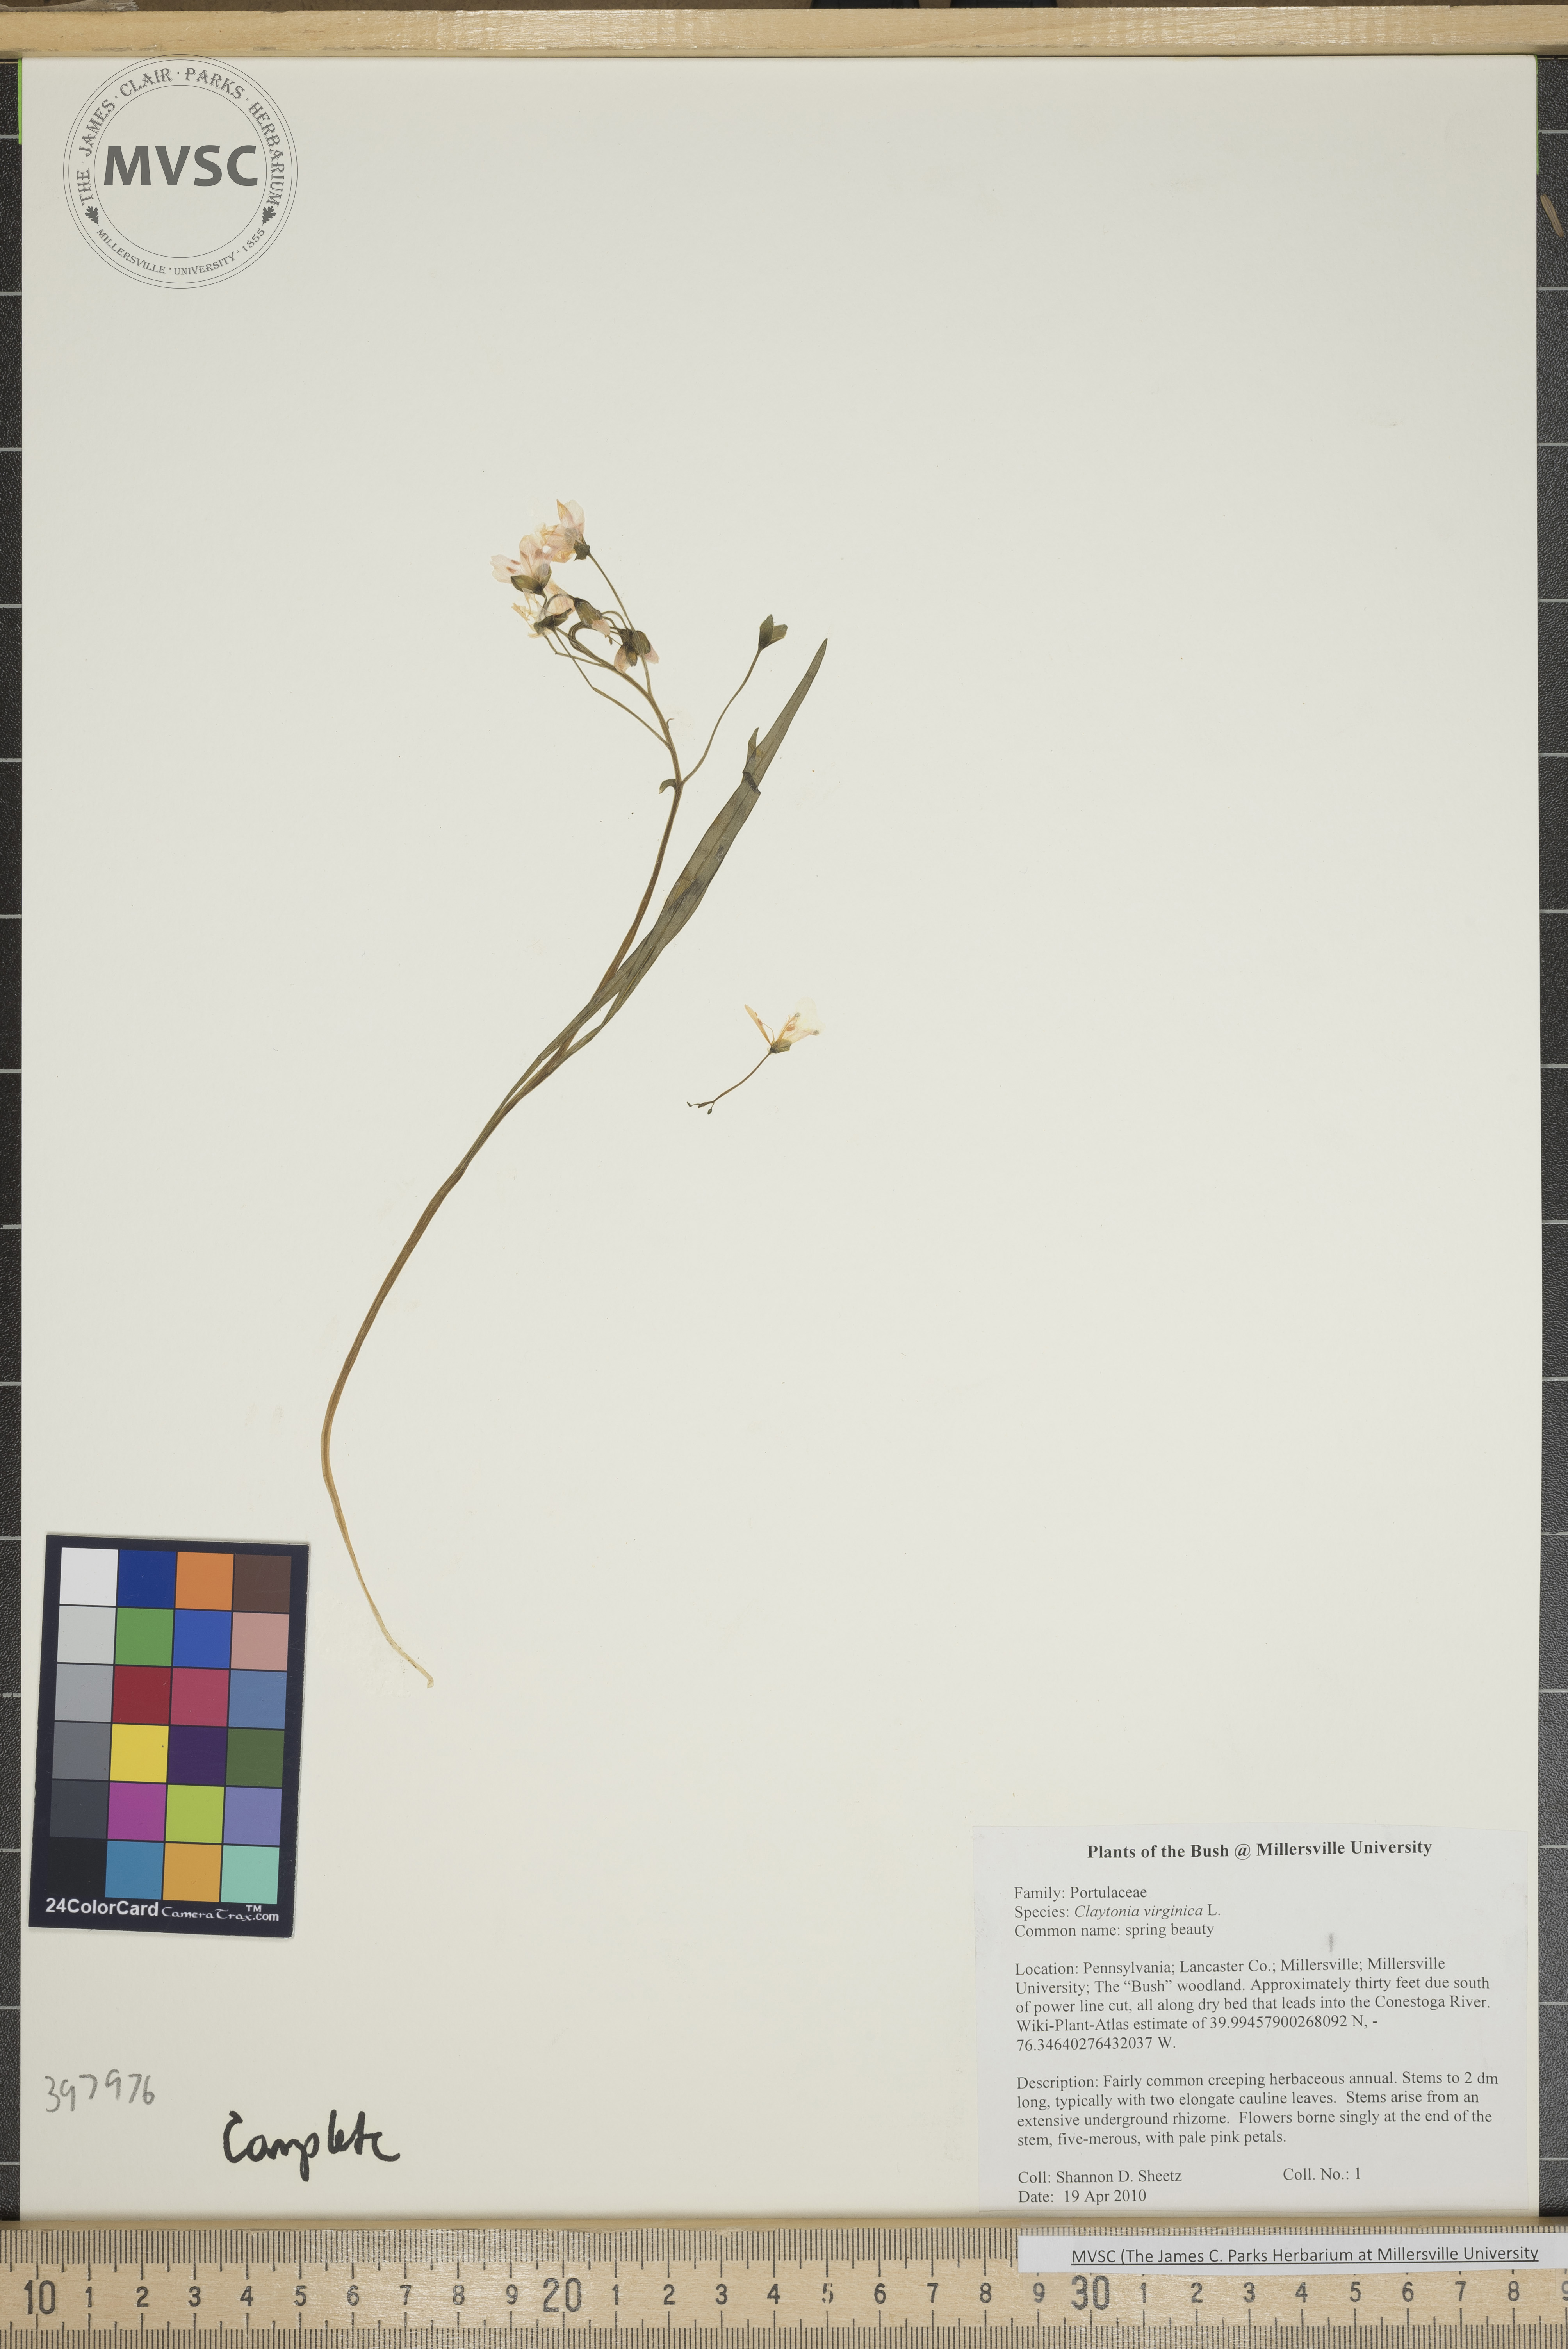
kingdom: Plantae
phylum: Tracheophyta
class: Magnoliopsida
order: Caryophyllales
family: Montiaceae
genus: Claytonia
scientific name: Claytonia virginica
